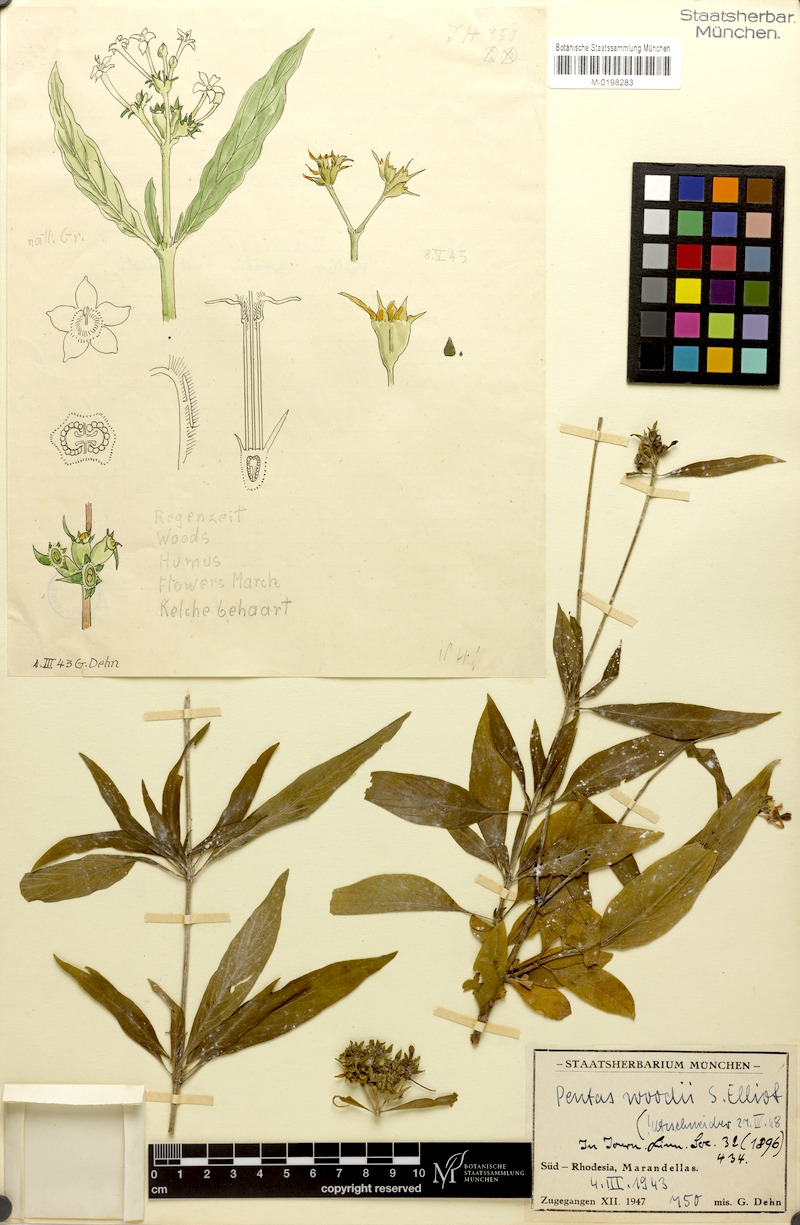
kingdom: Plantae
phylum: Tracheophyta
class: Magnoliopsida
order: Gentianales
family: Rubiaceae
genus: Pentas
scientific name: Pentas angustifolia
